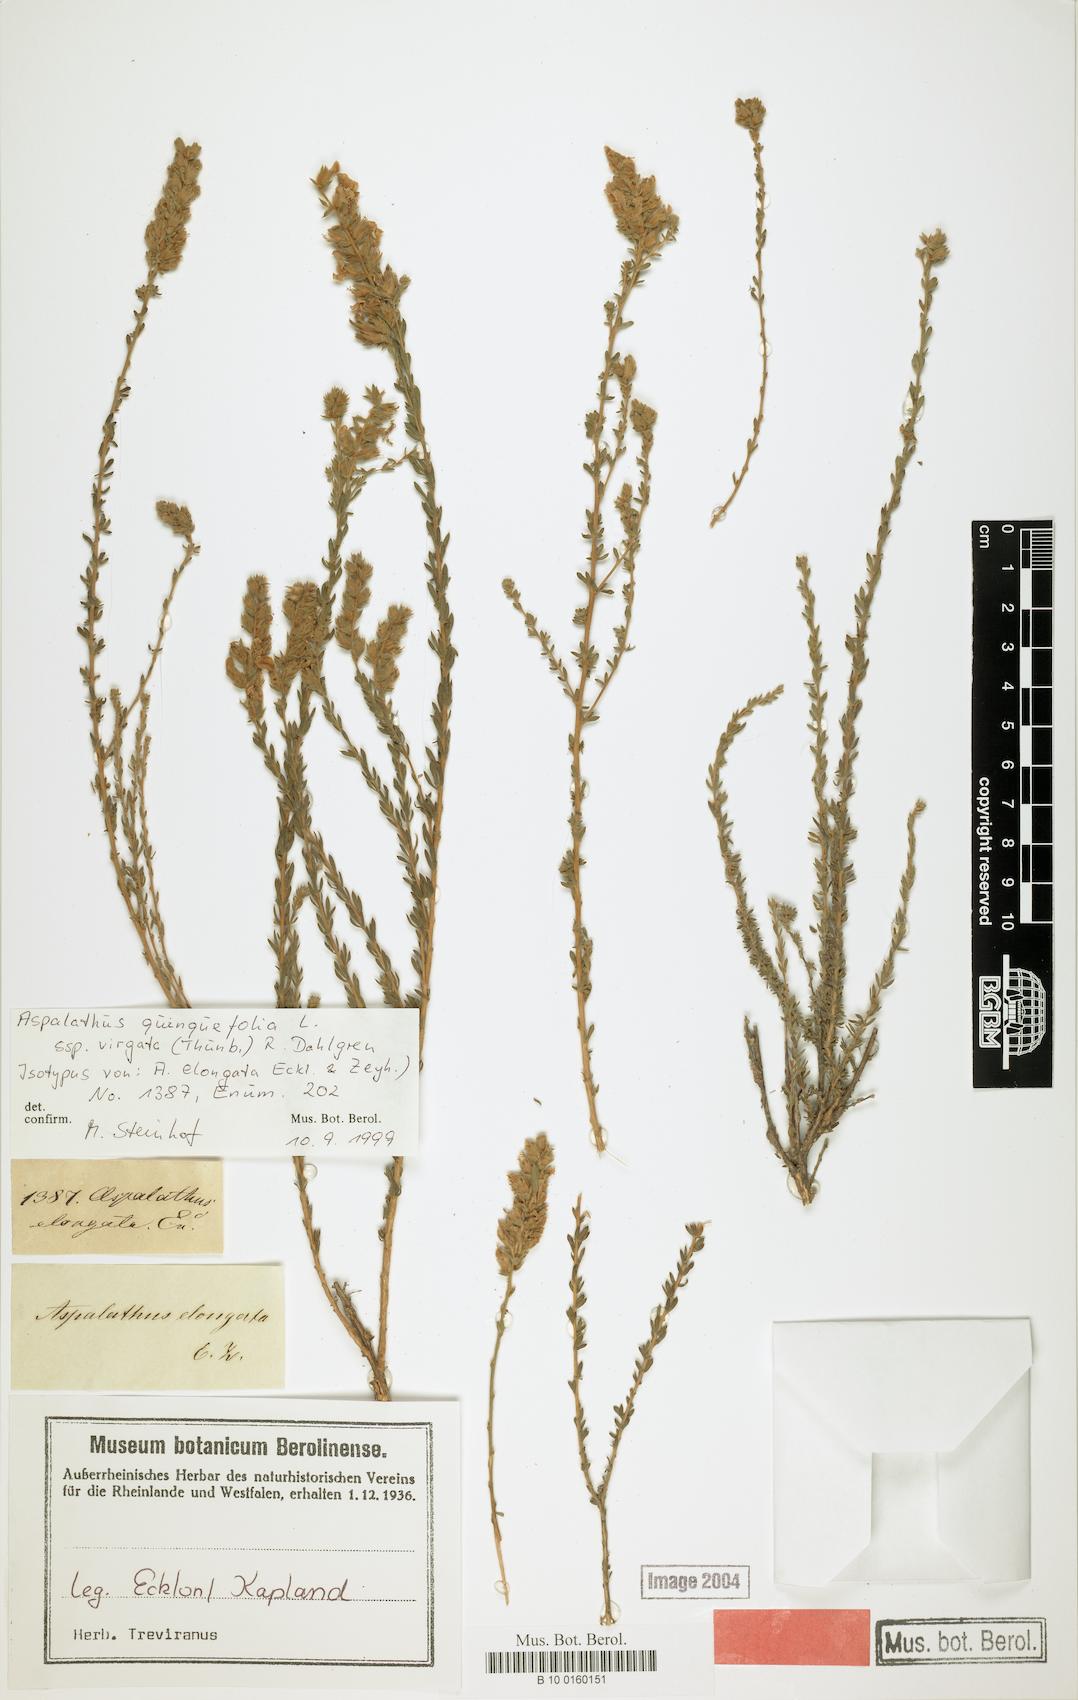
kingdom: Plantae
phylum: Tracheophyta
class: Magnoliopsida
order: Fabales
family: Fabaceae
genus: Aspalathus
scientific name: Aspalathus quinquefolia
